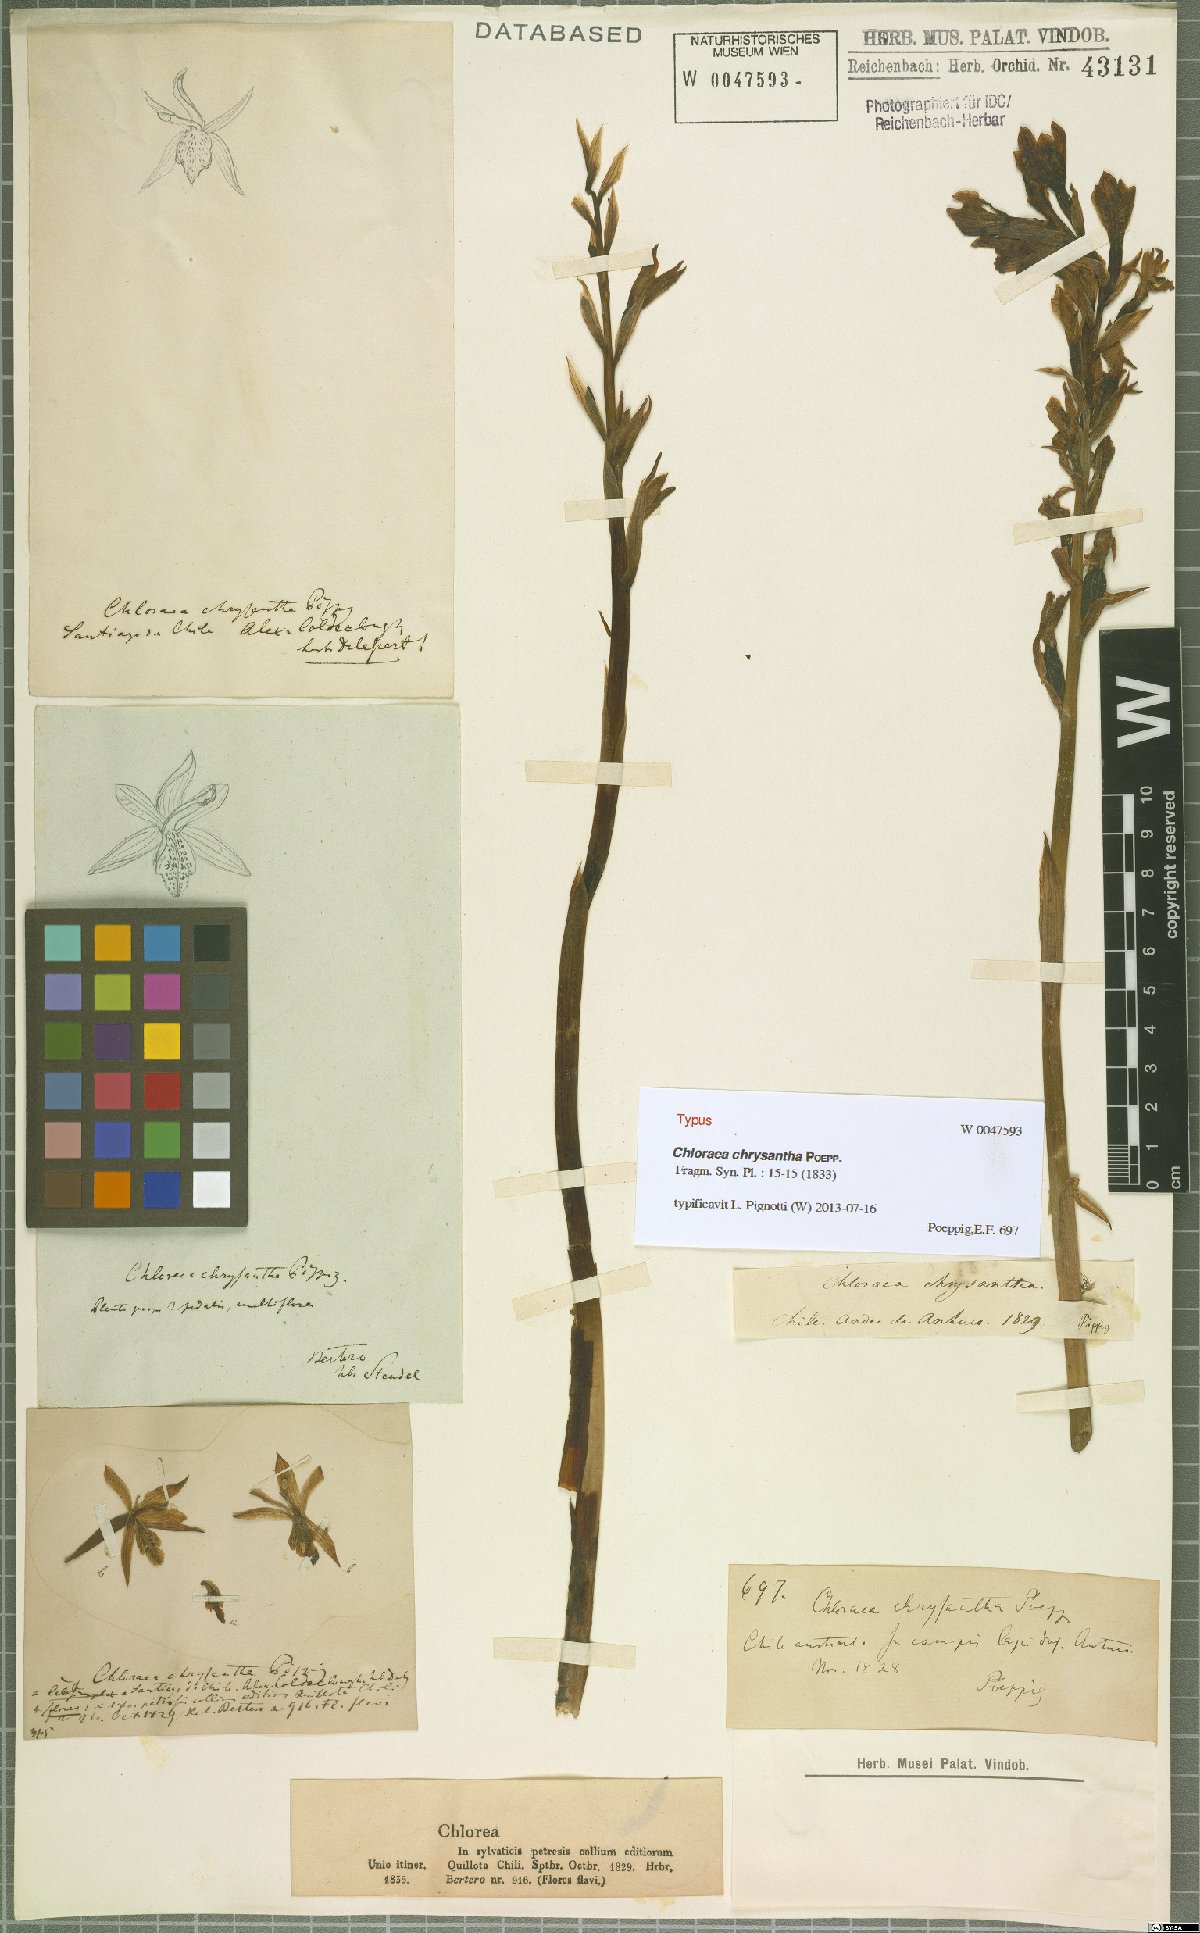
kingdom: Plantae
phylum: Tracheophyta
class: Liliopsida
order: Asparagales
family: Orchidaceae
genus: Chloraea
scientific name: Chloraea chrysantha
